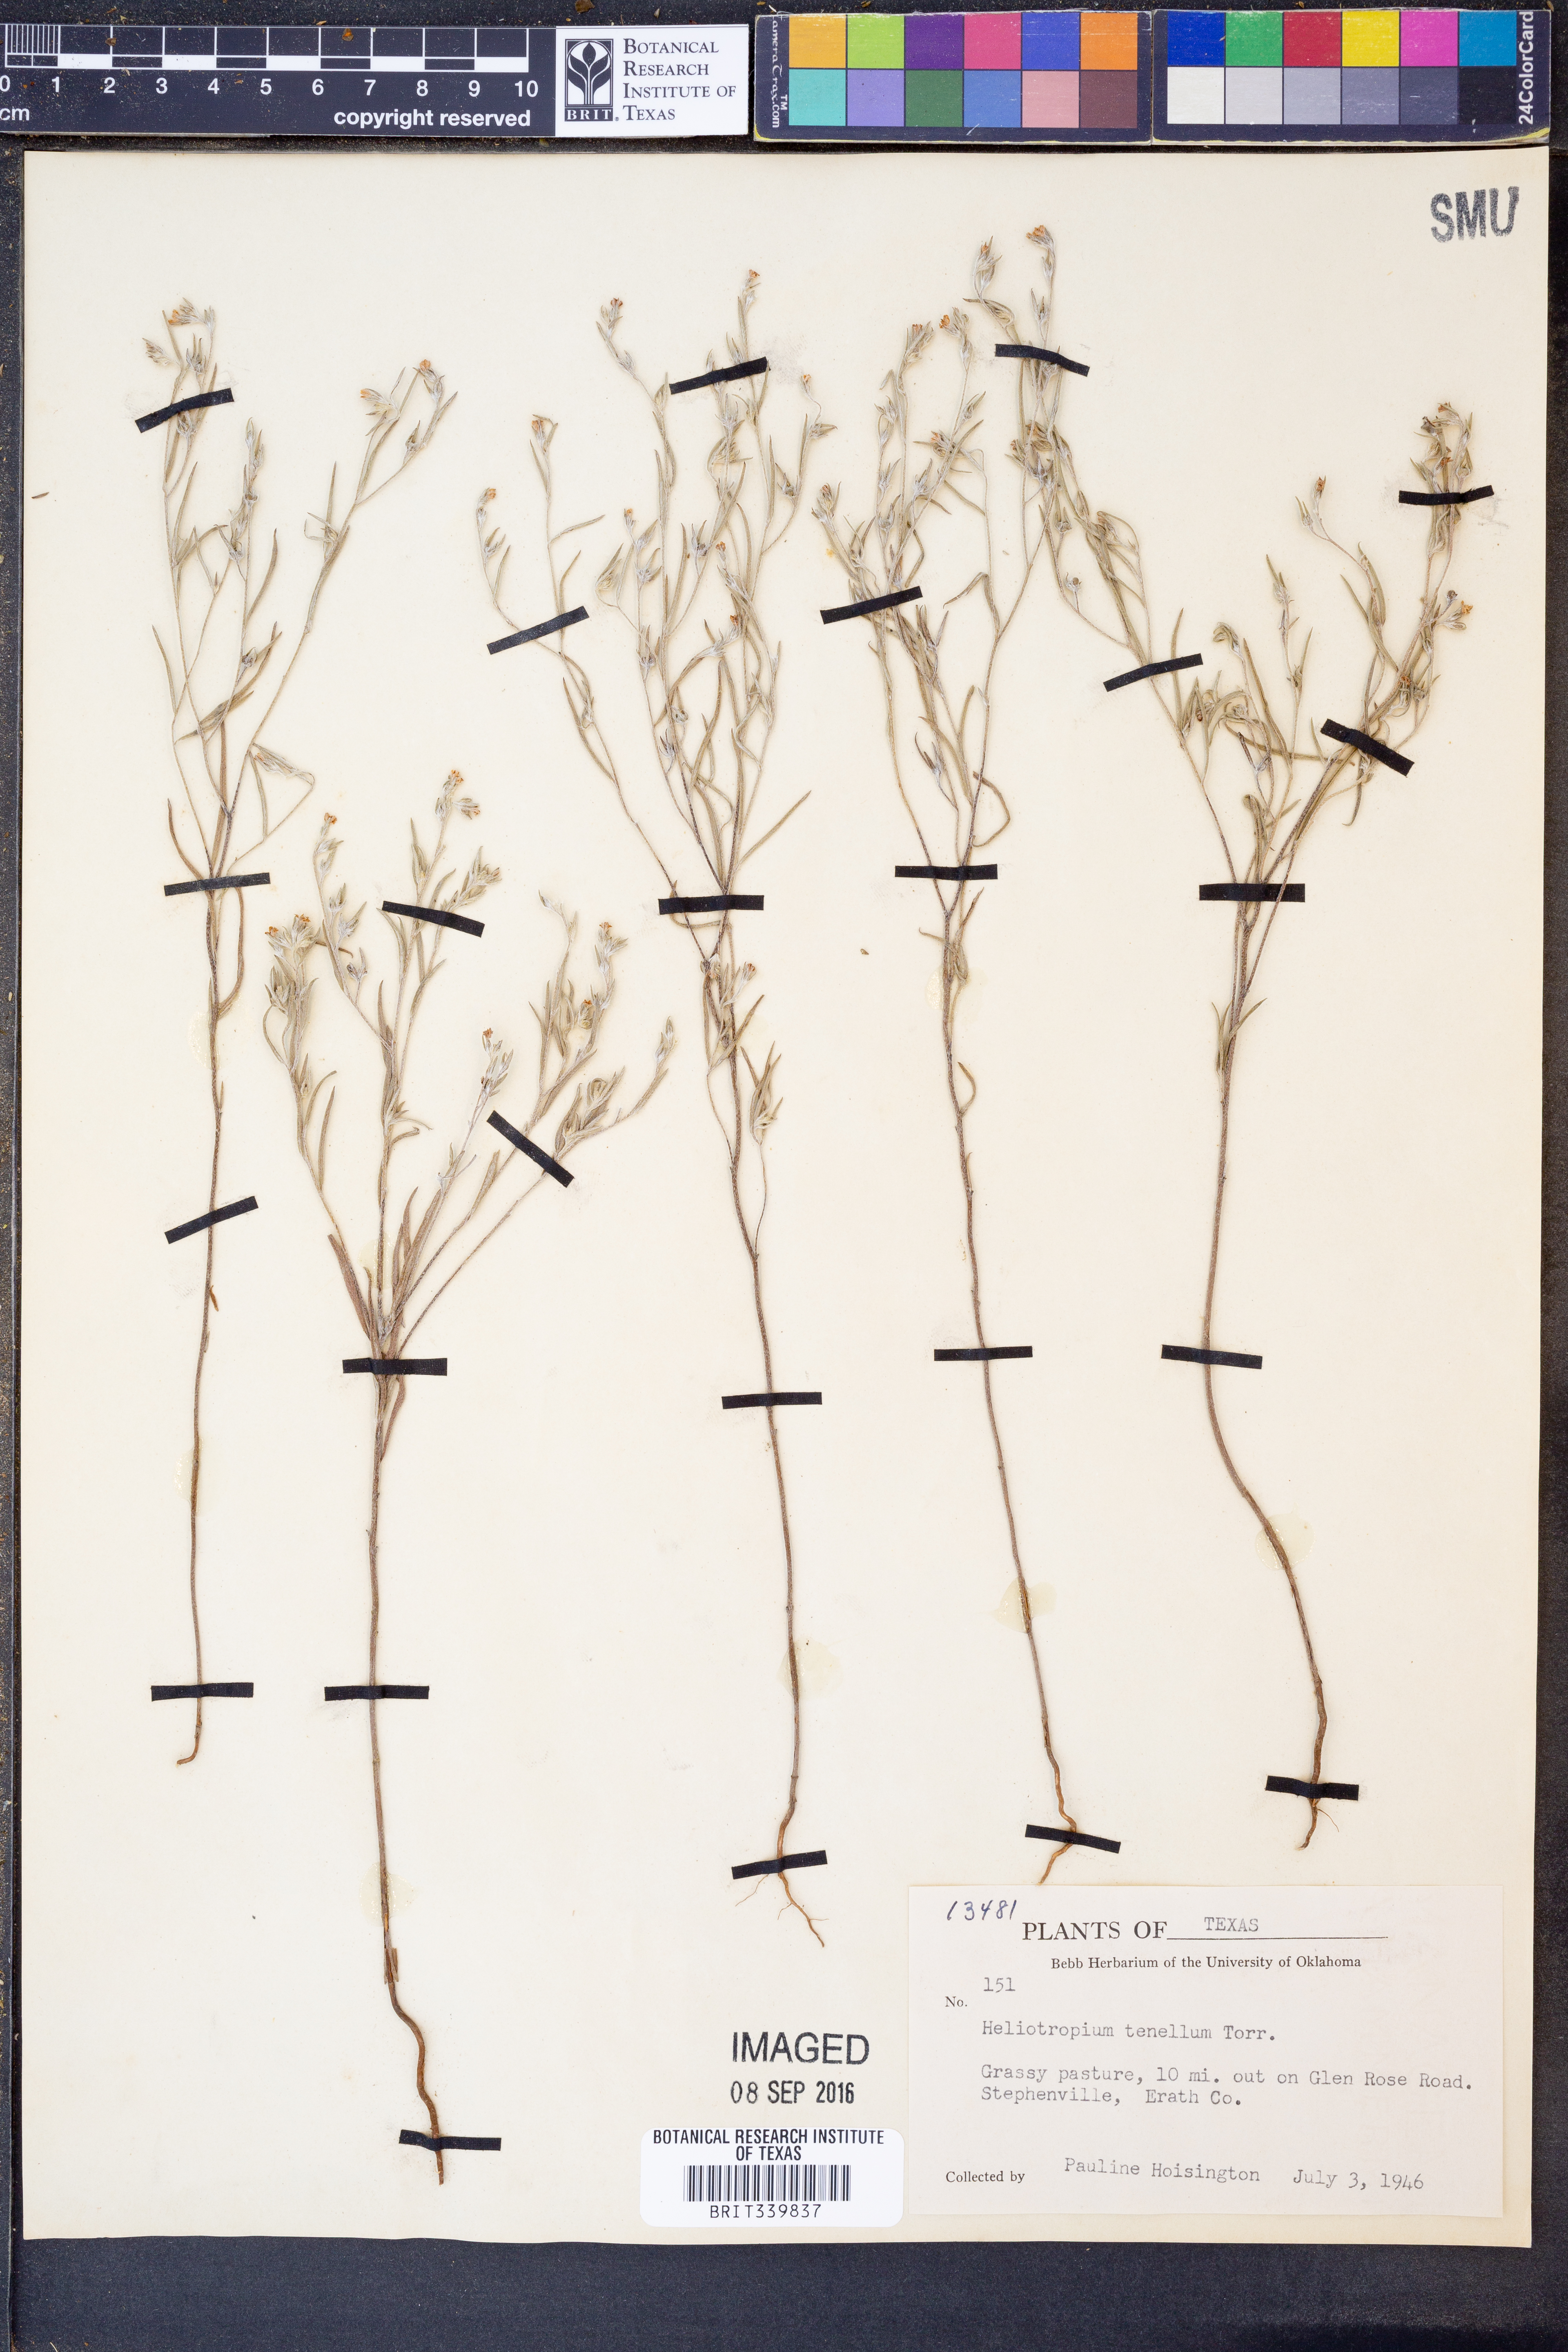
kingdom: Plantae
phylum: Tracheophyta
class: Magnoliopsida
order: Boraginales
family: Heliotropiaceae
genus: Euploca
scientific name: Euploca tenella
